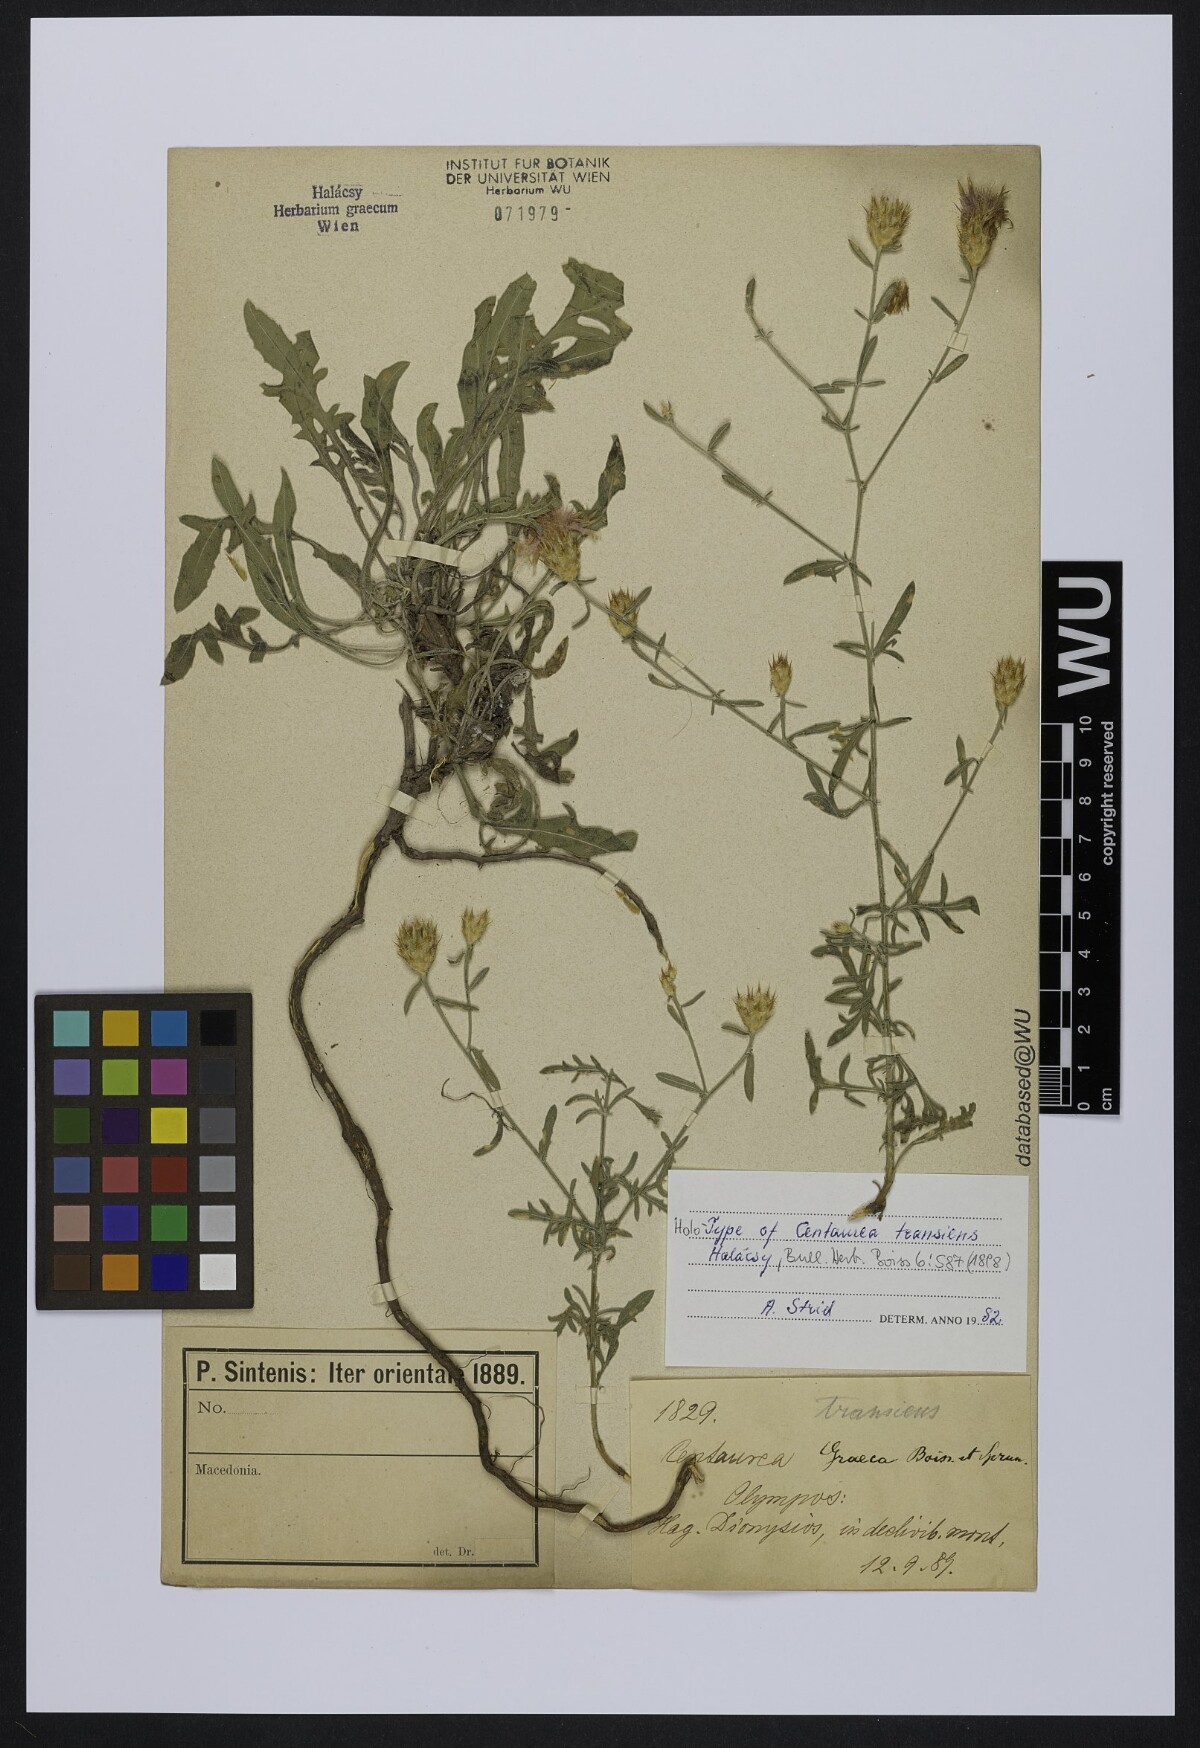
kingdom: Plantae
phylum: Tracheophyta
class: Magnoliopsida
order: Asterales
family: Asteraceae
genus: Centaurea
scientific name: Centaurea grisebachii
